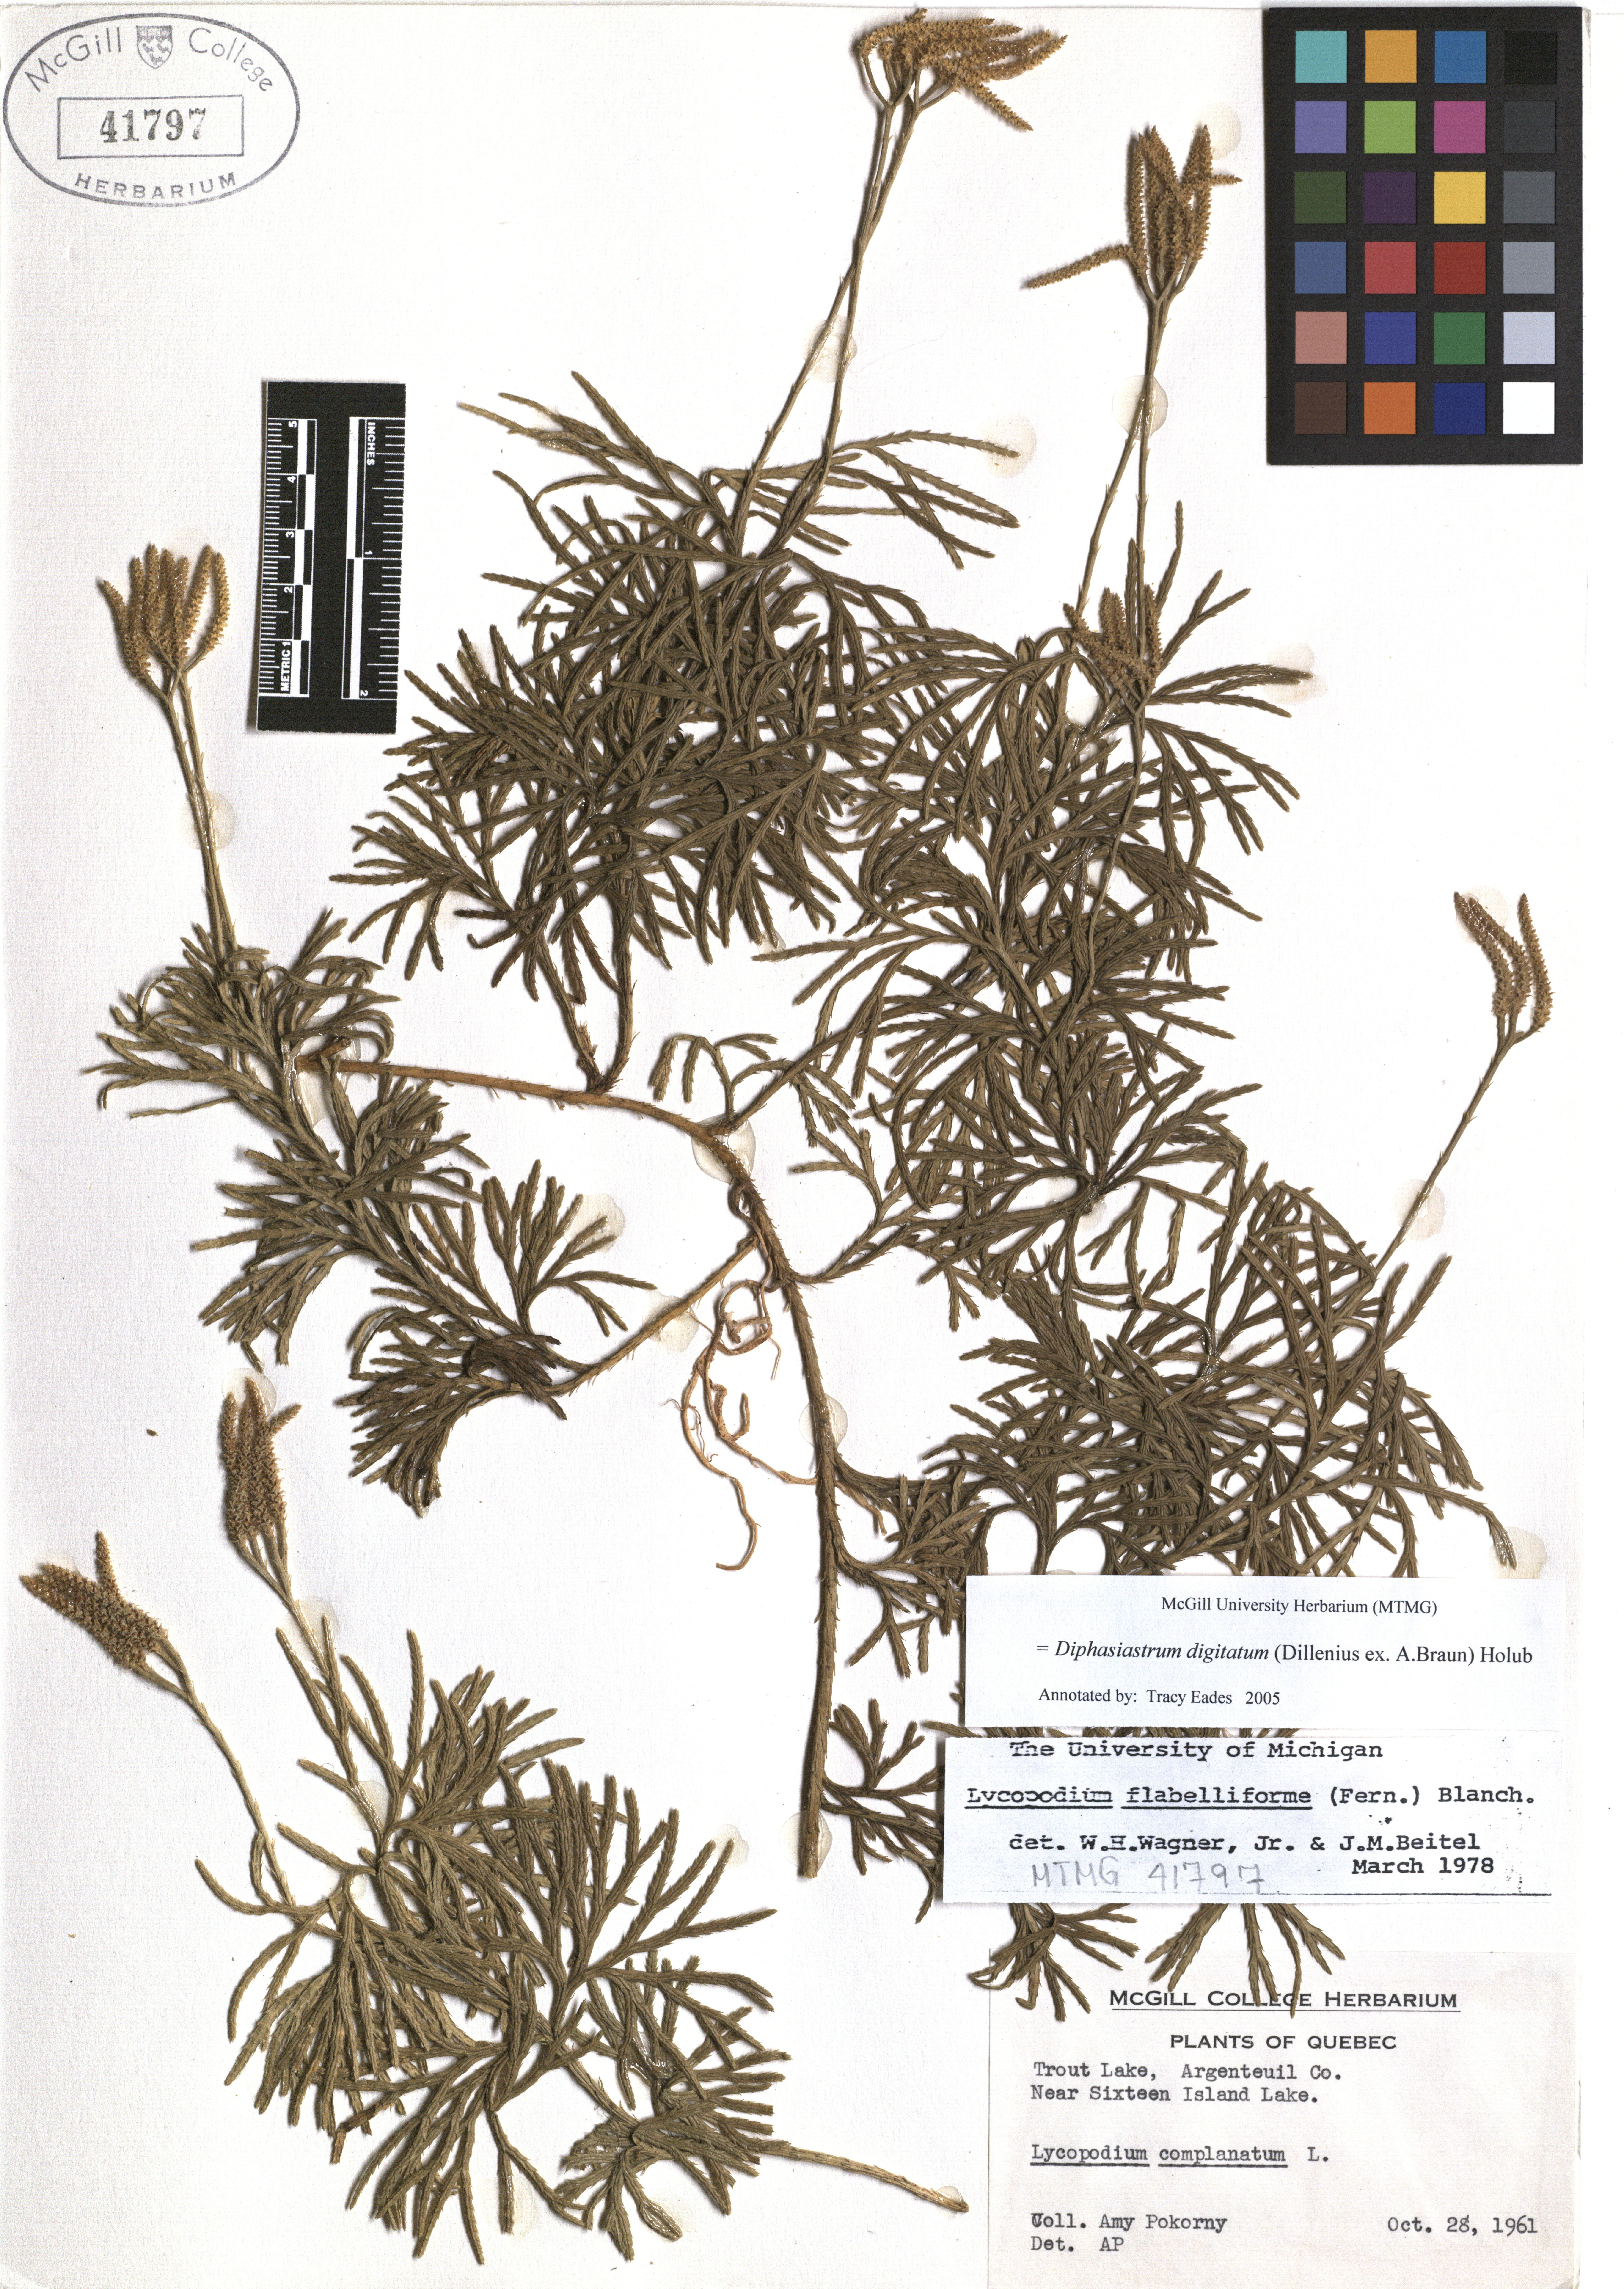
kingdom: Plantae
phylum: Tracheophyta
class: Lycopodiopsida
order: Lycopodiales
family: Lycopodiaceae
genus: Diphasiastrum
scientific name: Diphasiastrum digitatum
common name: Southern running-pine
